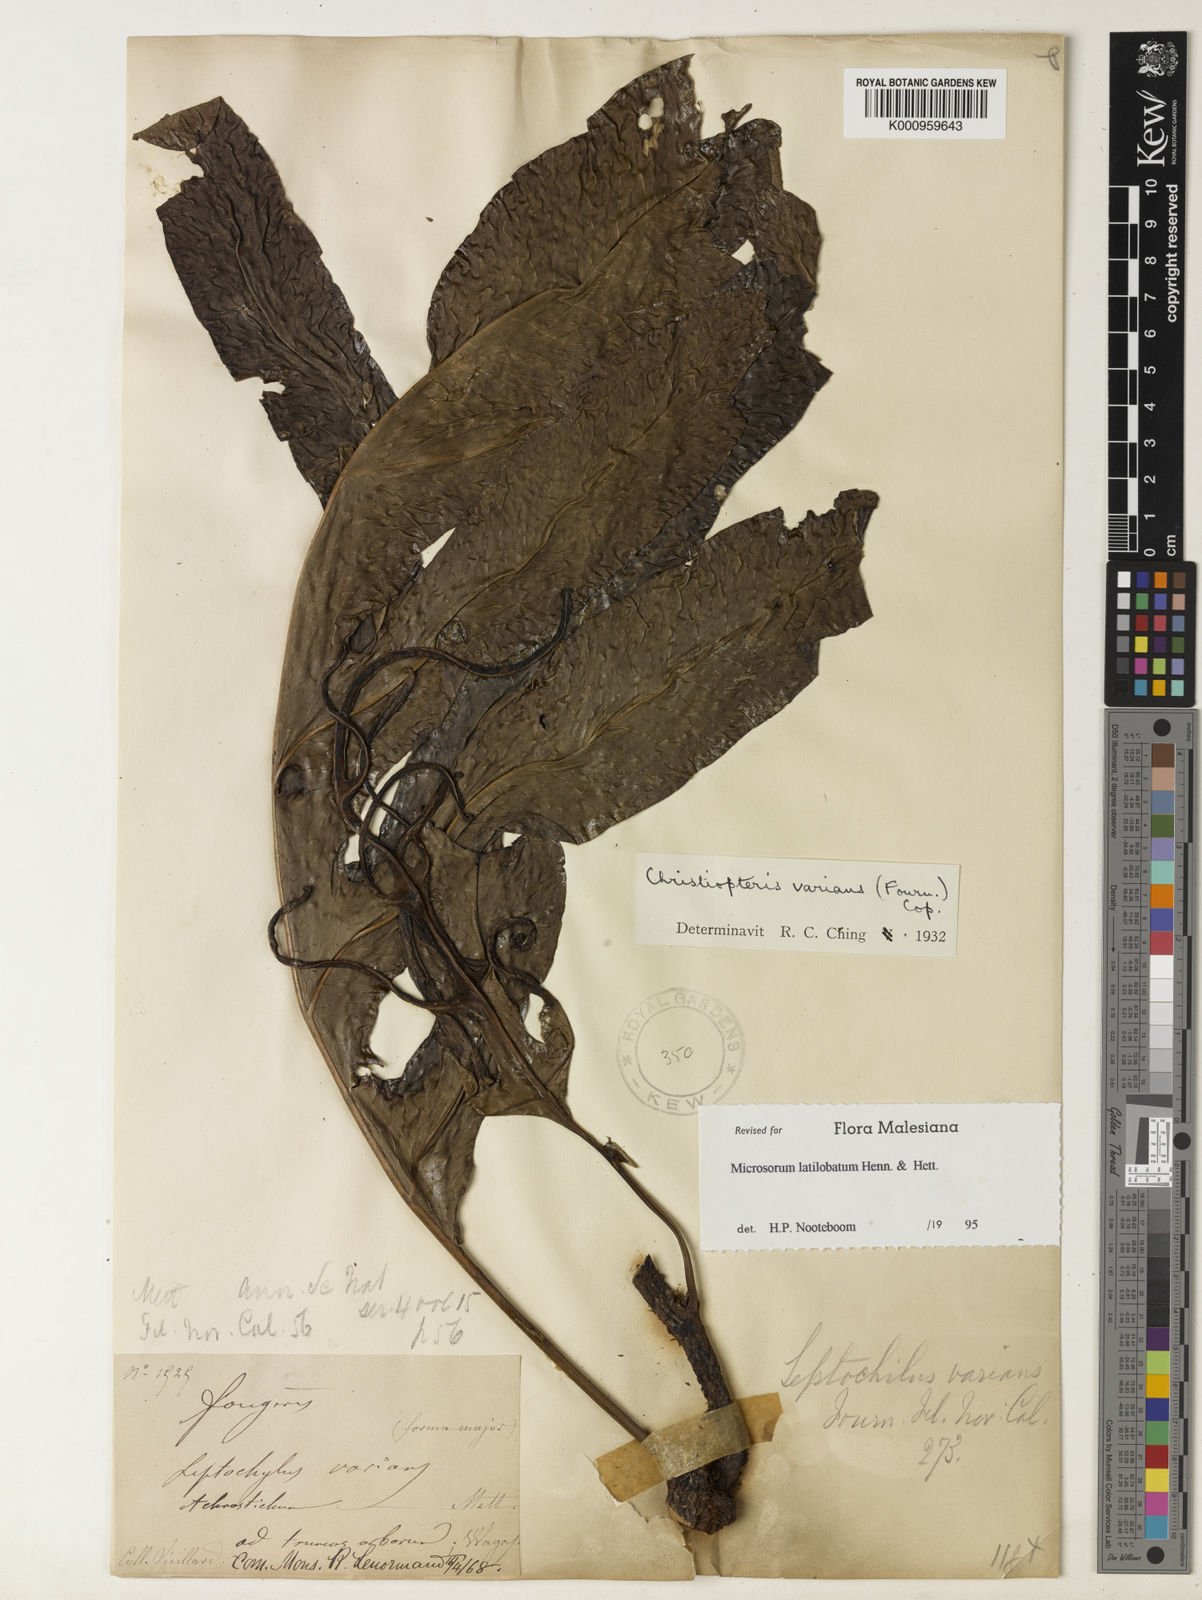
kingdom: Plantae
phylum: Tracheophyta
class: Polypodiopsida
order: Polypodiales
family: Polypodiaceae
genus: Drynaria
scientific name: Drynaria
